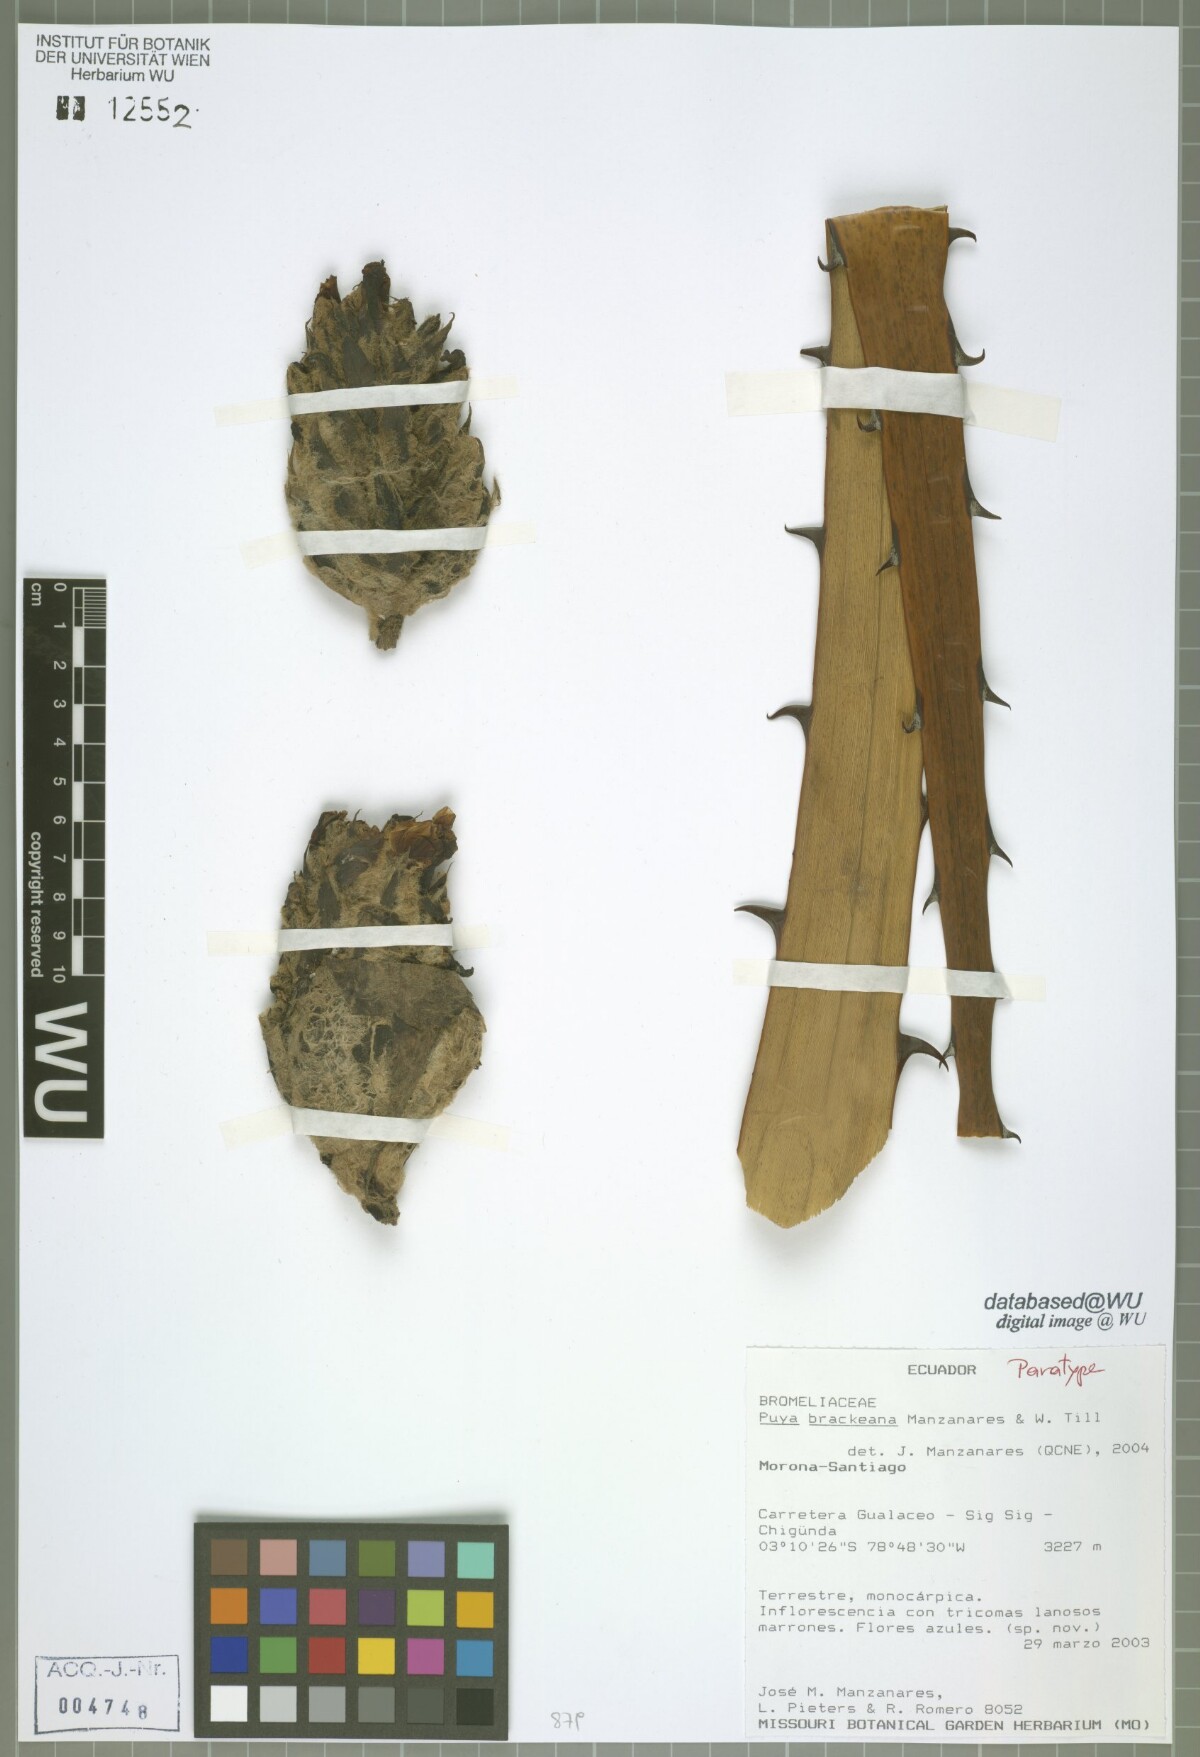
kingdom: Plantae
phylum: Tracheophyta
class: Liliopsida
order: Poales
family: Bromeliaceae
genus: Puya
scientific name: Puya brackeana
